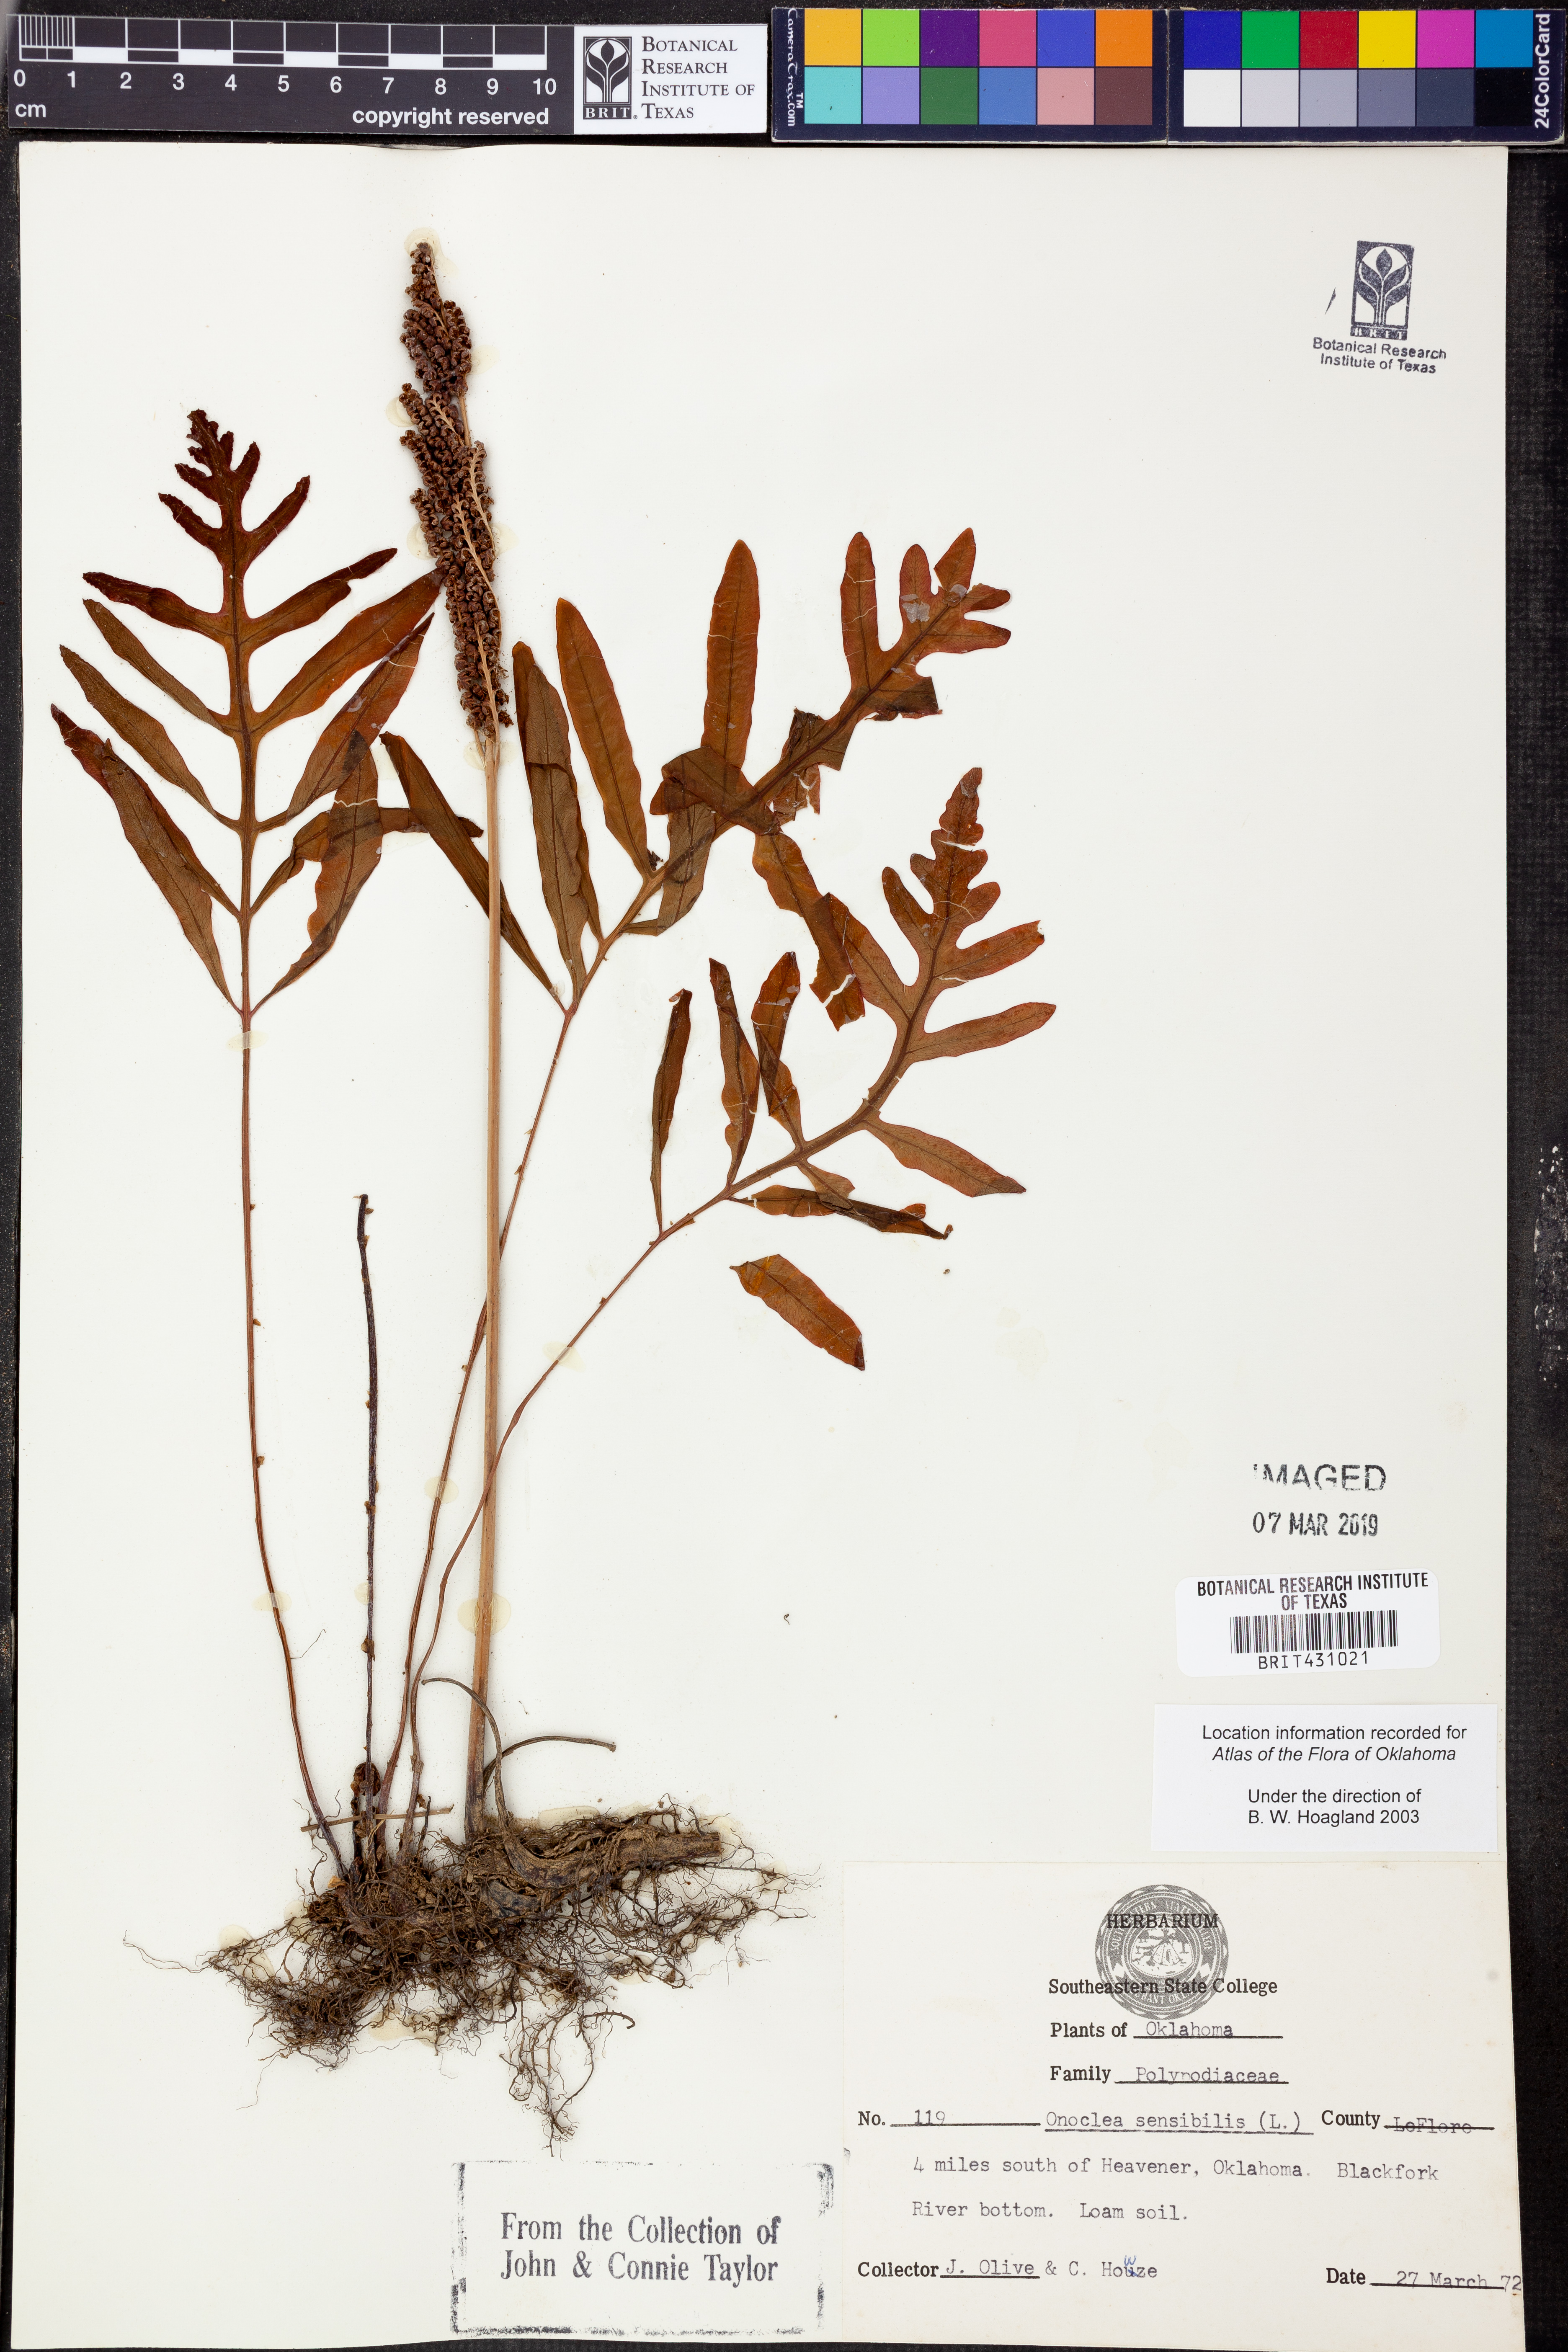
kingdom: Plantae
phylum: Tracheophyta
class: Polypodiopsida
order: Polypodiales
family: Onocleaceae
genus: Onoclea
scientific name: Onoclea sensibilis
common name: Sensitive fern
